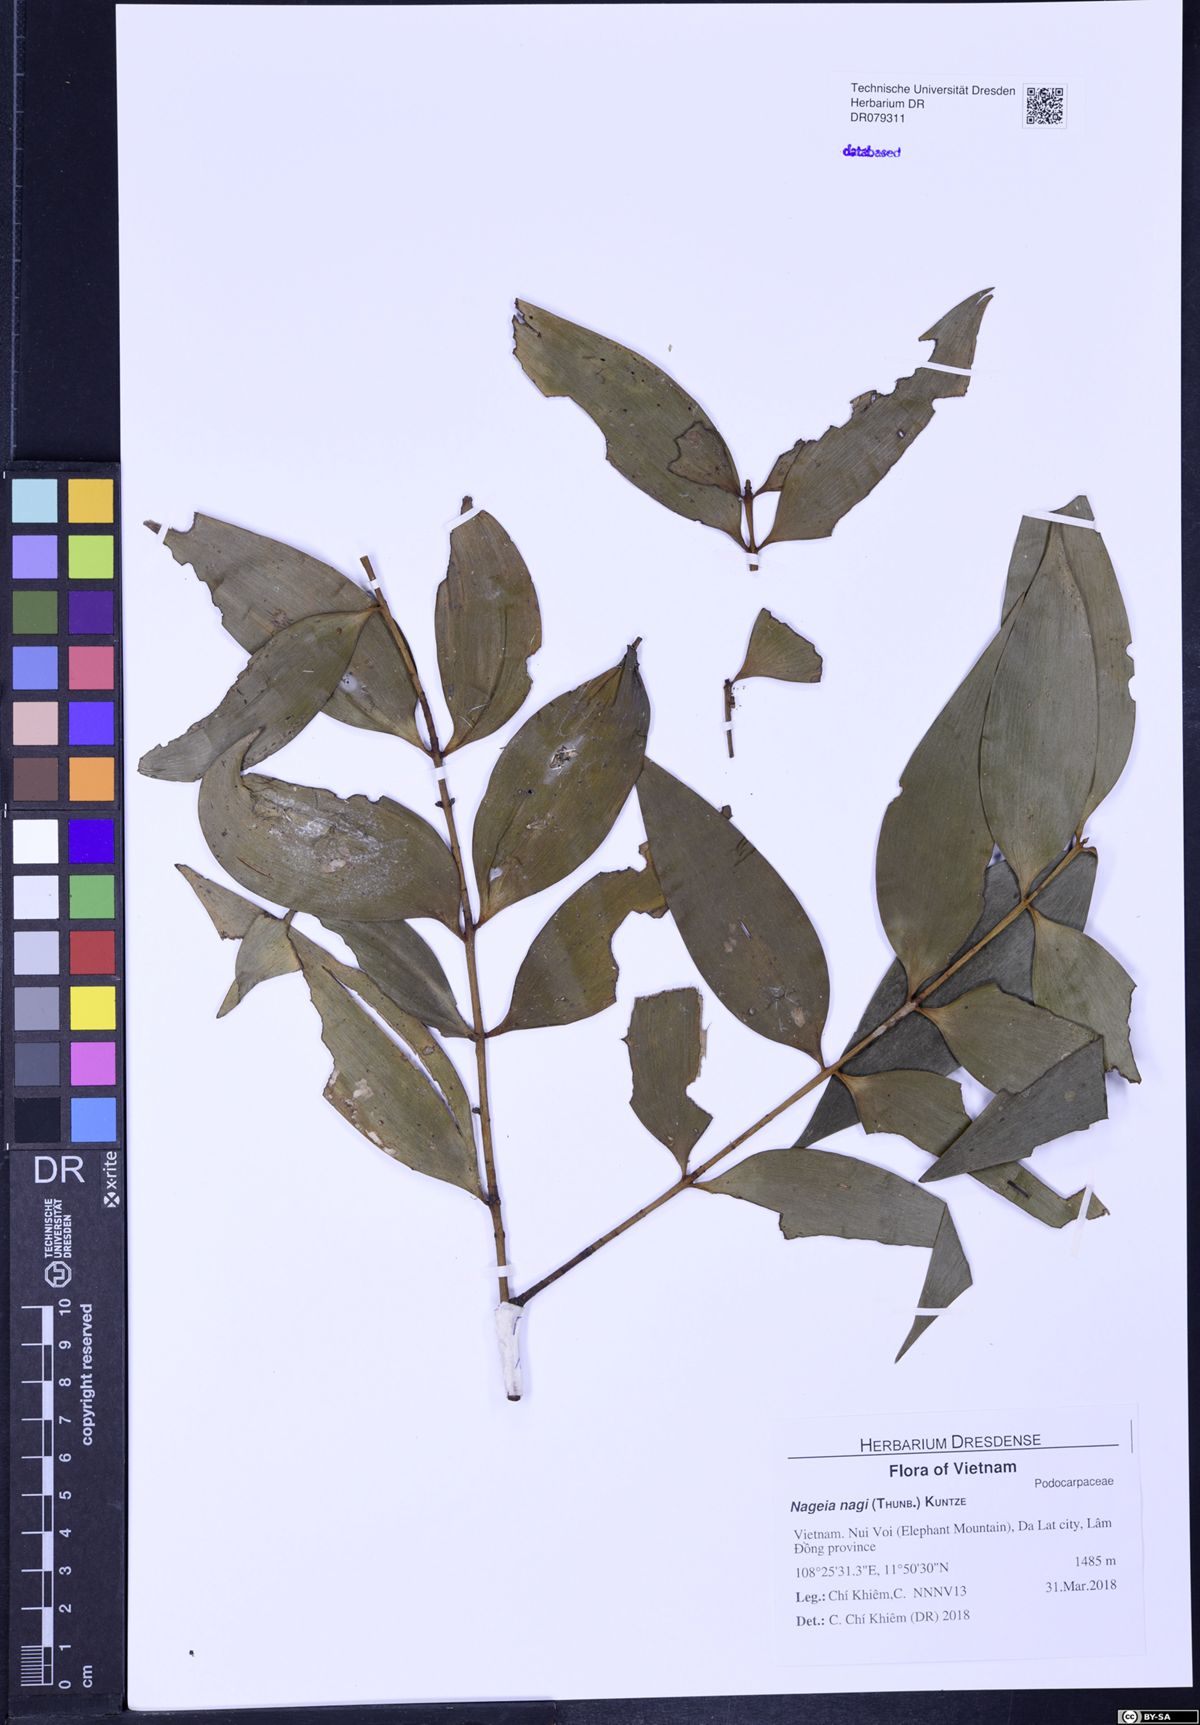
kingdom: Plantae
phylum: Tracheophyta
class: Pinopsida
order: Pinales
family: Podocarpaceae
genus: Nageia
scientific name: Nageia nagi
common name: Kaphal
